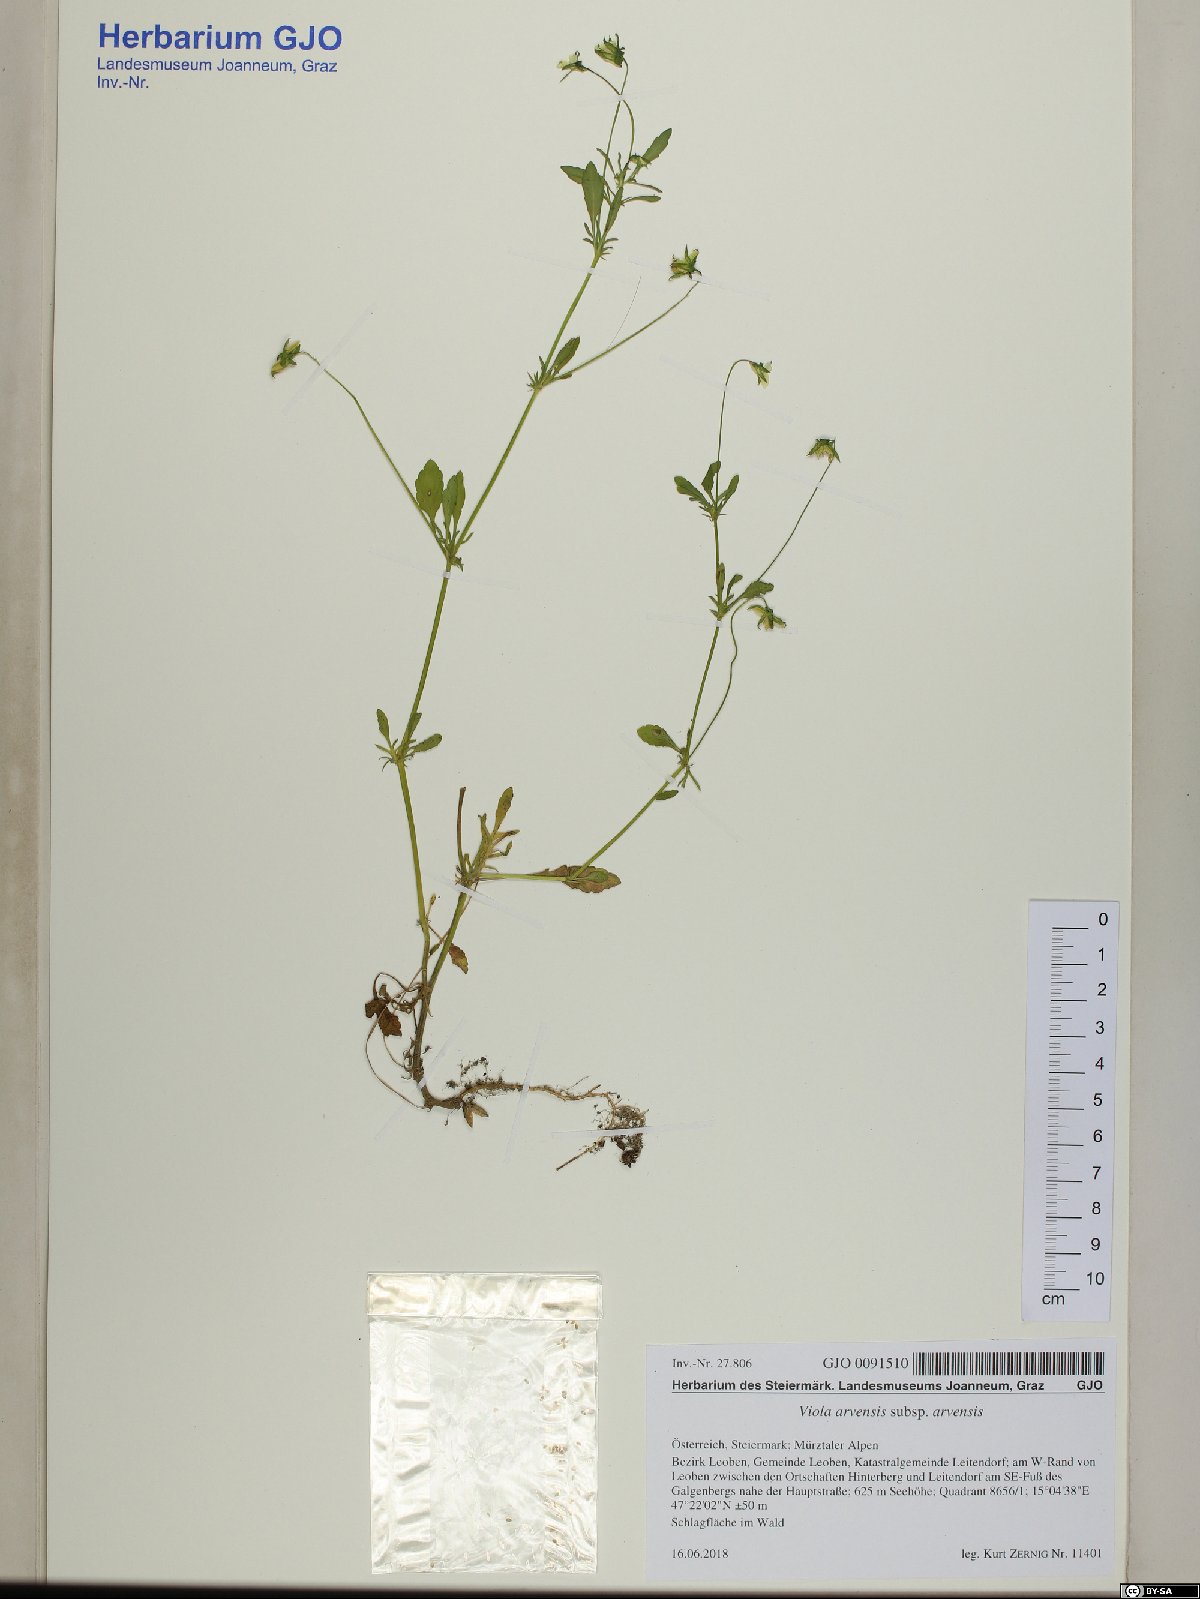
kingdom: Plantae
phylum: Tracheophyta
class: Magnoliopsida
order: Malpighiales
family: Violaceae
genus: Viola
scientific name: Viola arvensis
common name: Field pansy
